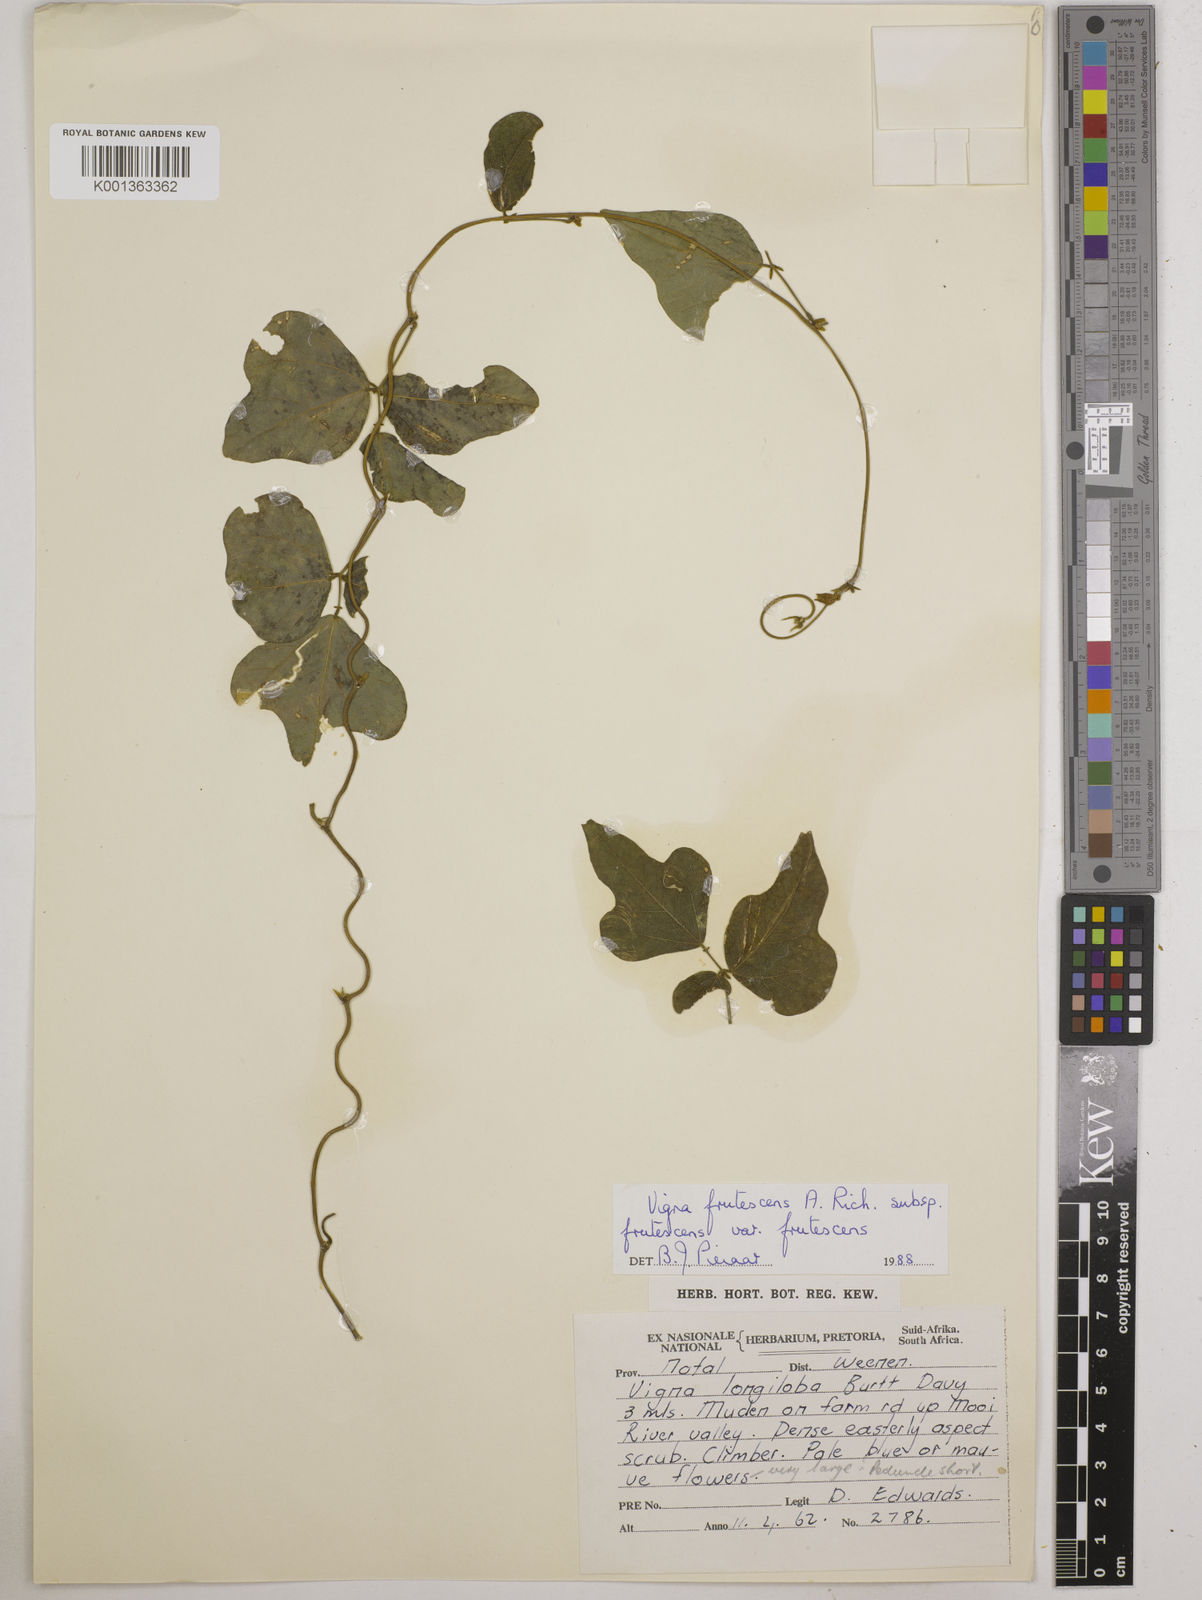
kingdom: Plantae
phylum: Tracheophyta
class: Magnoliopsida
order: Fabales
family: Fabaceae
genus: Vigna
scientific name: Vigna frutescens
